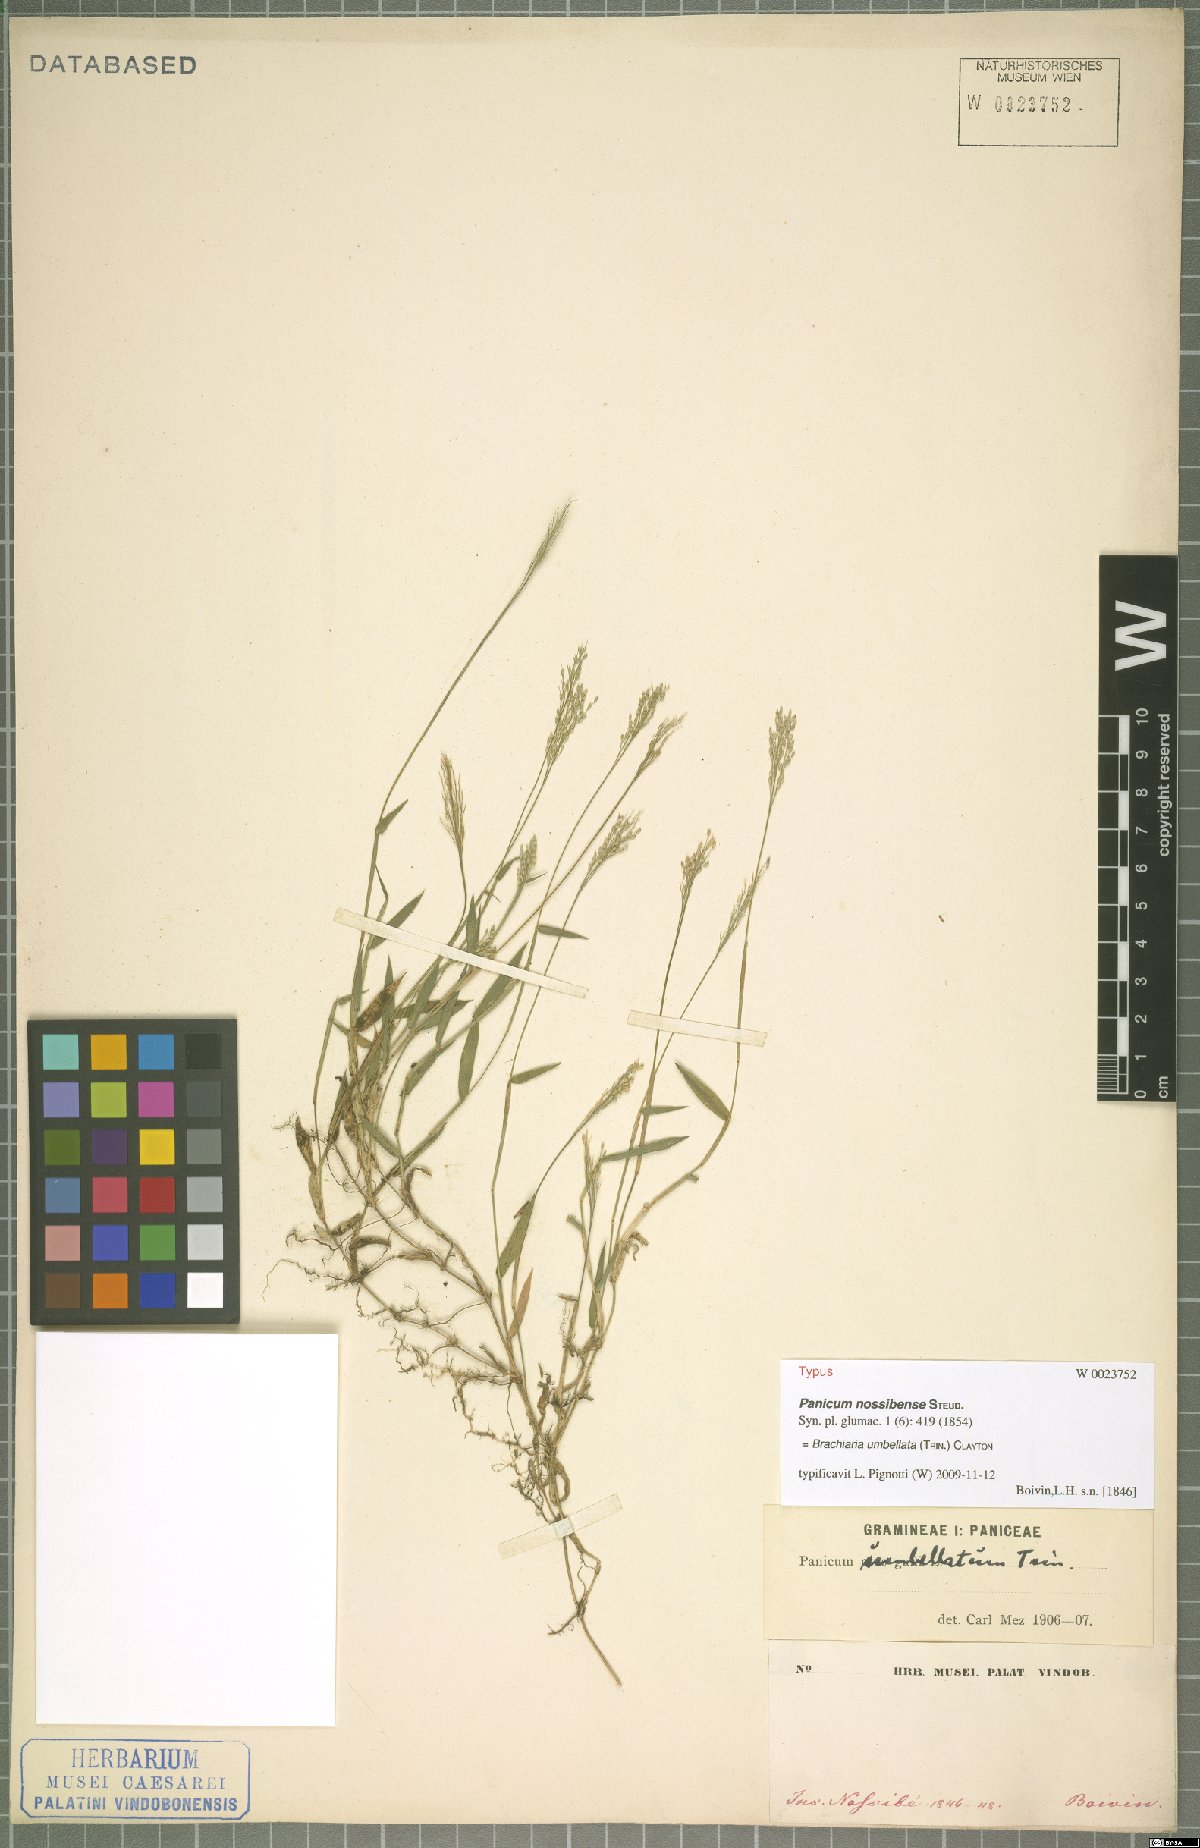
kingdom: Plantae
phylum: Tracheophyta
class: Liliopsida
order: Poales
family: Poaceae
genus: Urochloa
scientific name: Urochloa Brachiaria umbellata
